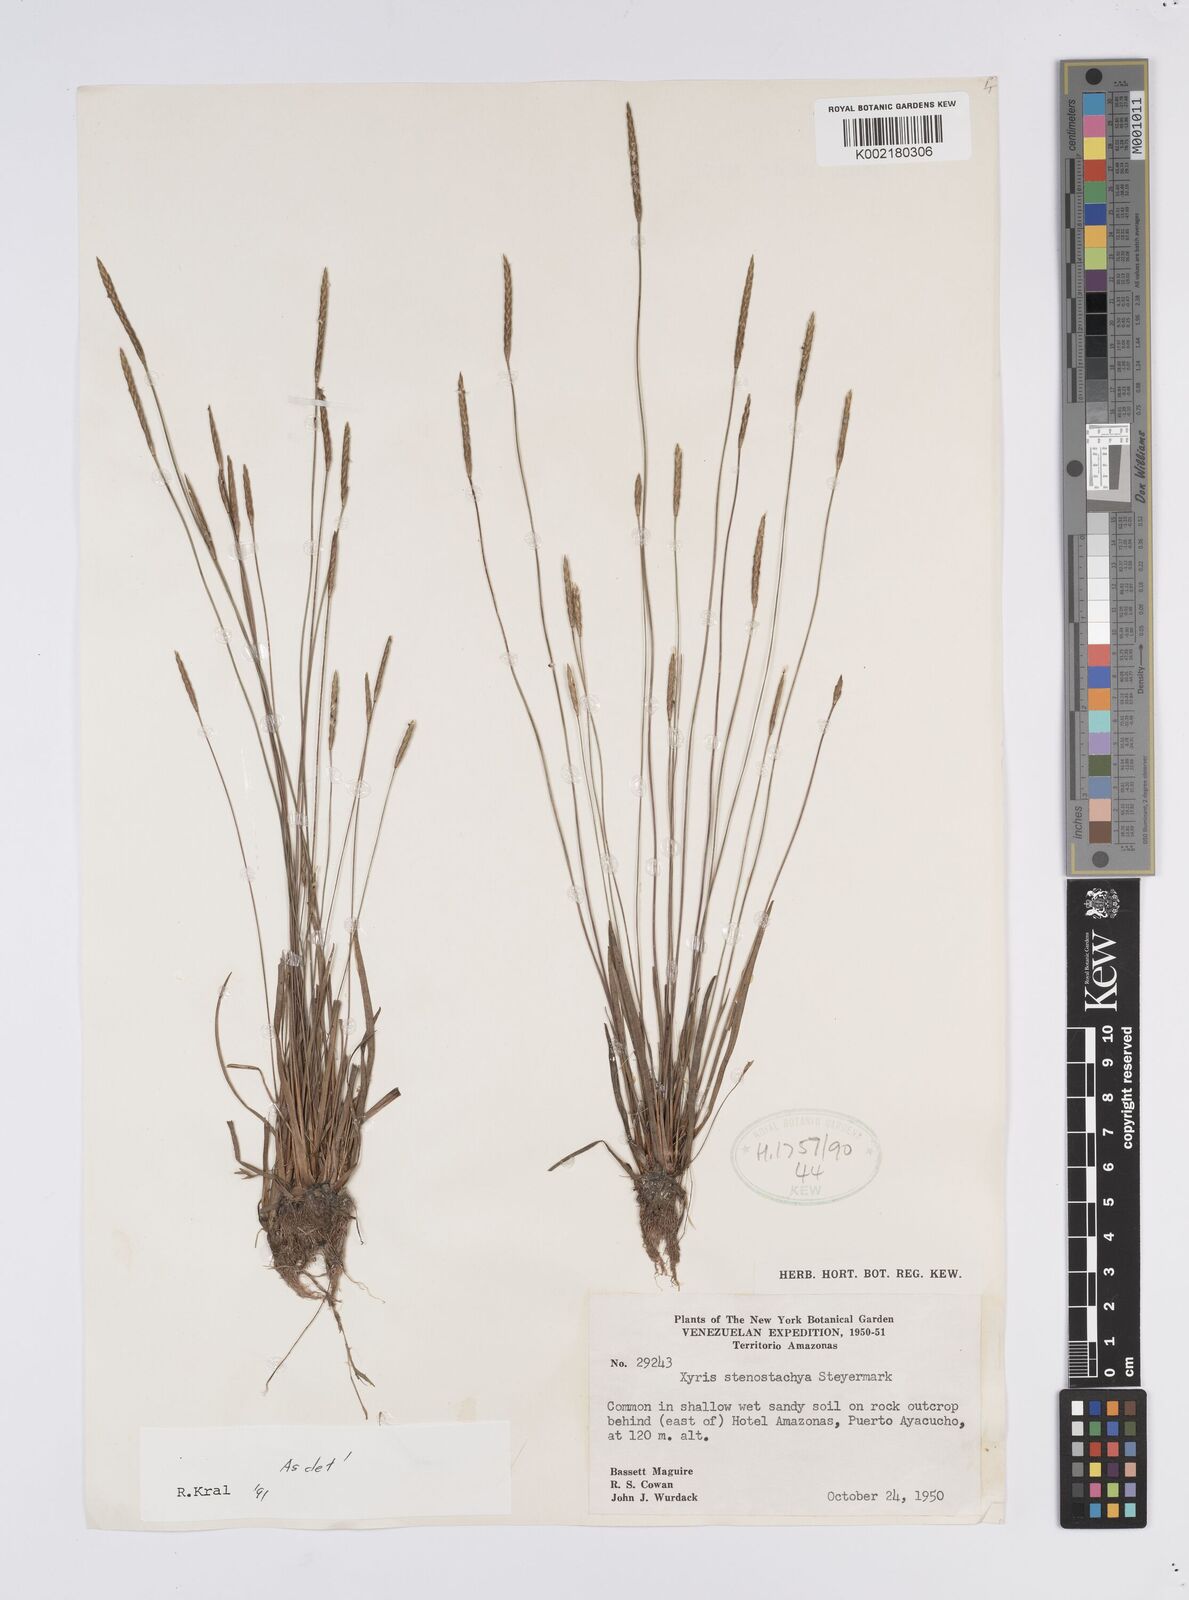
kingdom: Plantae
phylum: Tracheophyta
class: Liliopsida
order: Poales
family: Xyridaceae
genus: Xyris
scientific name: Xyris stenostachya
